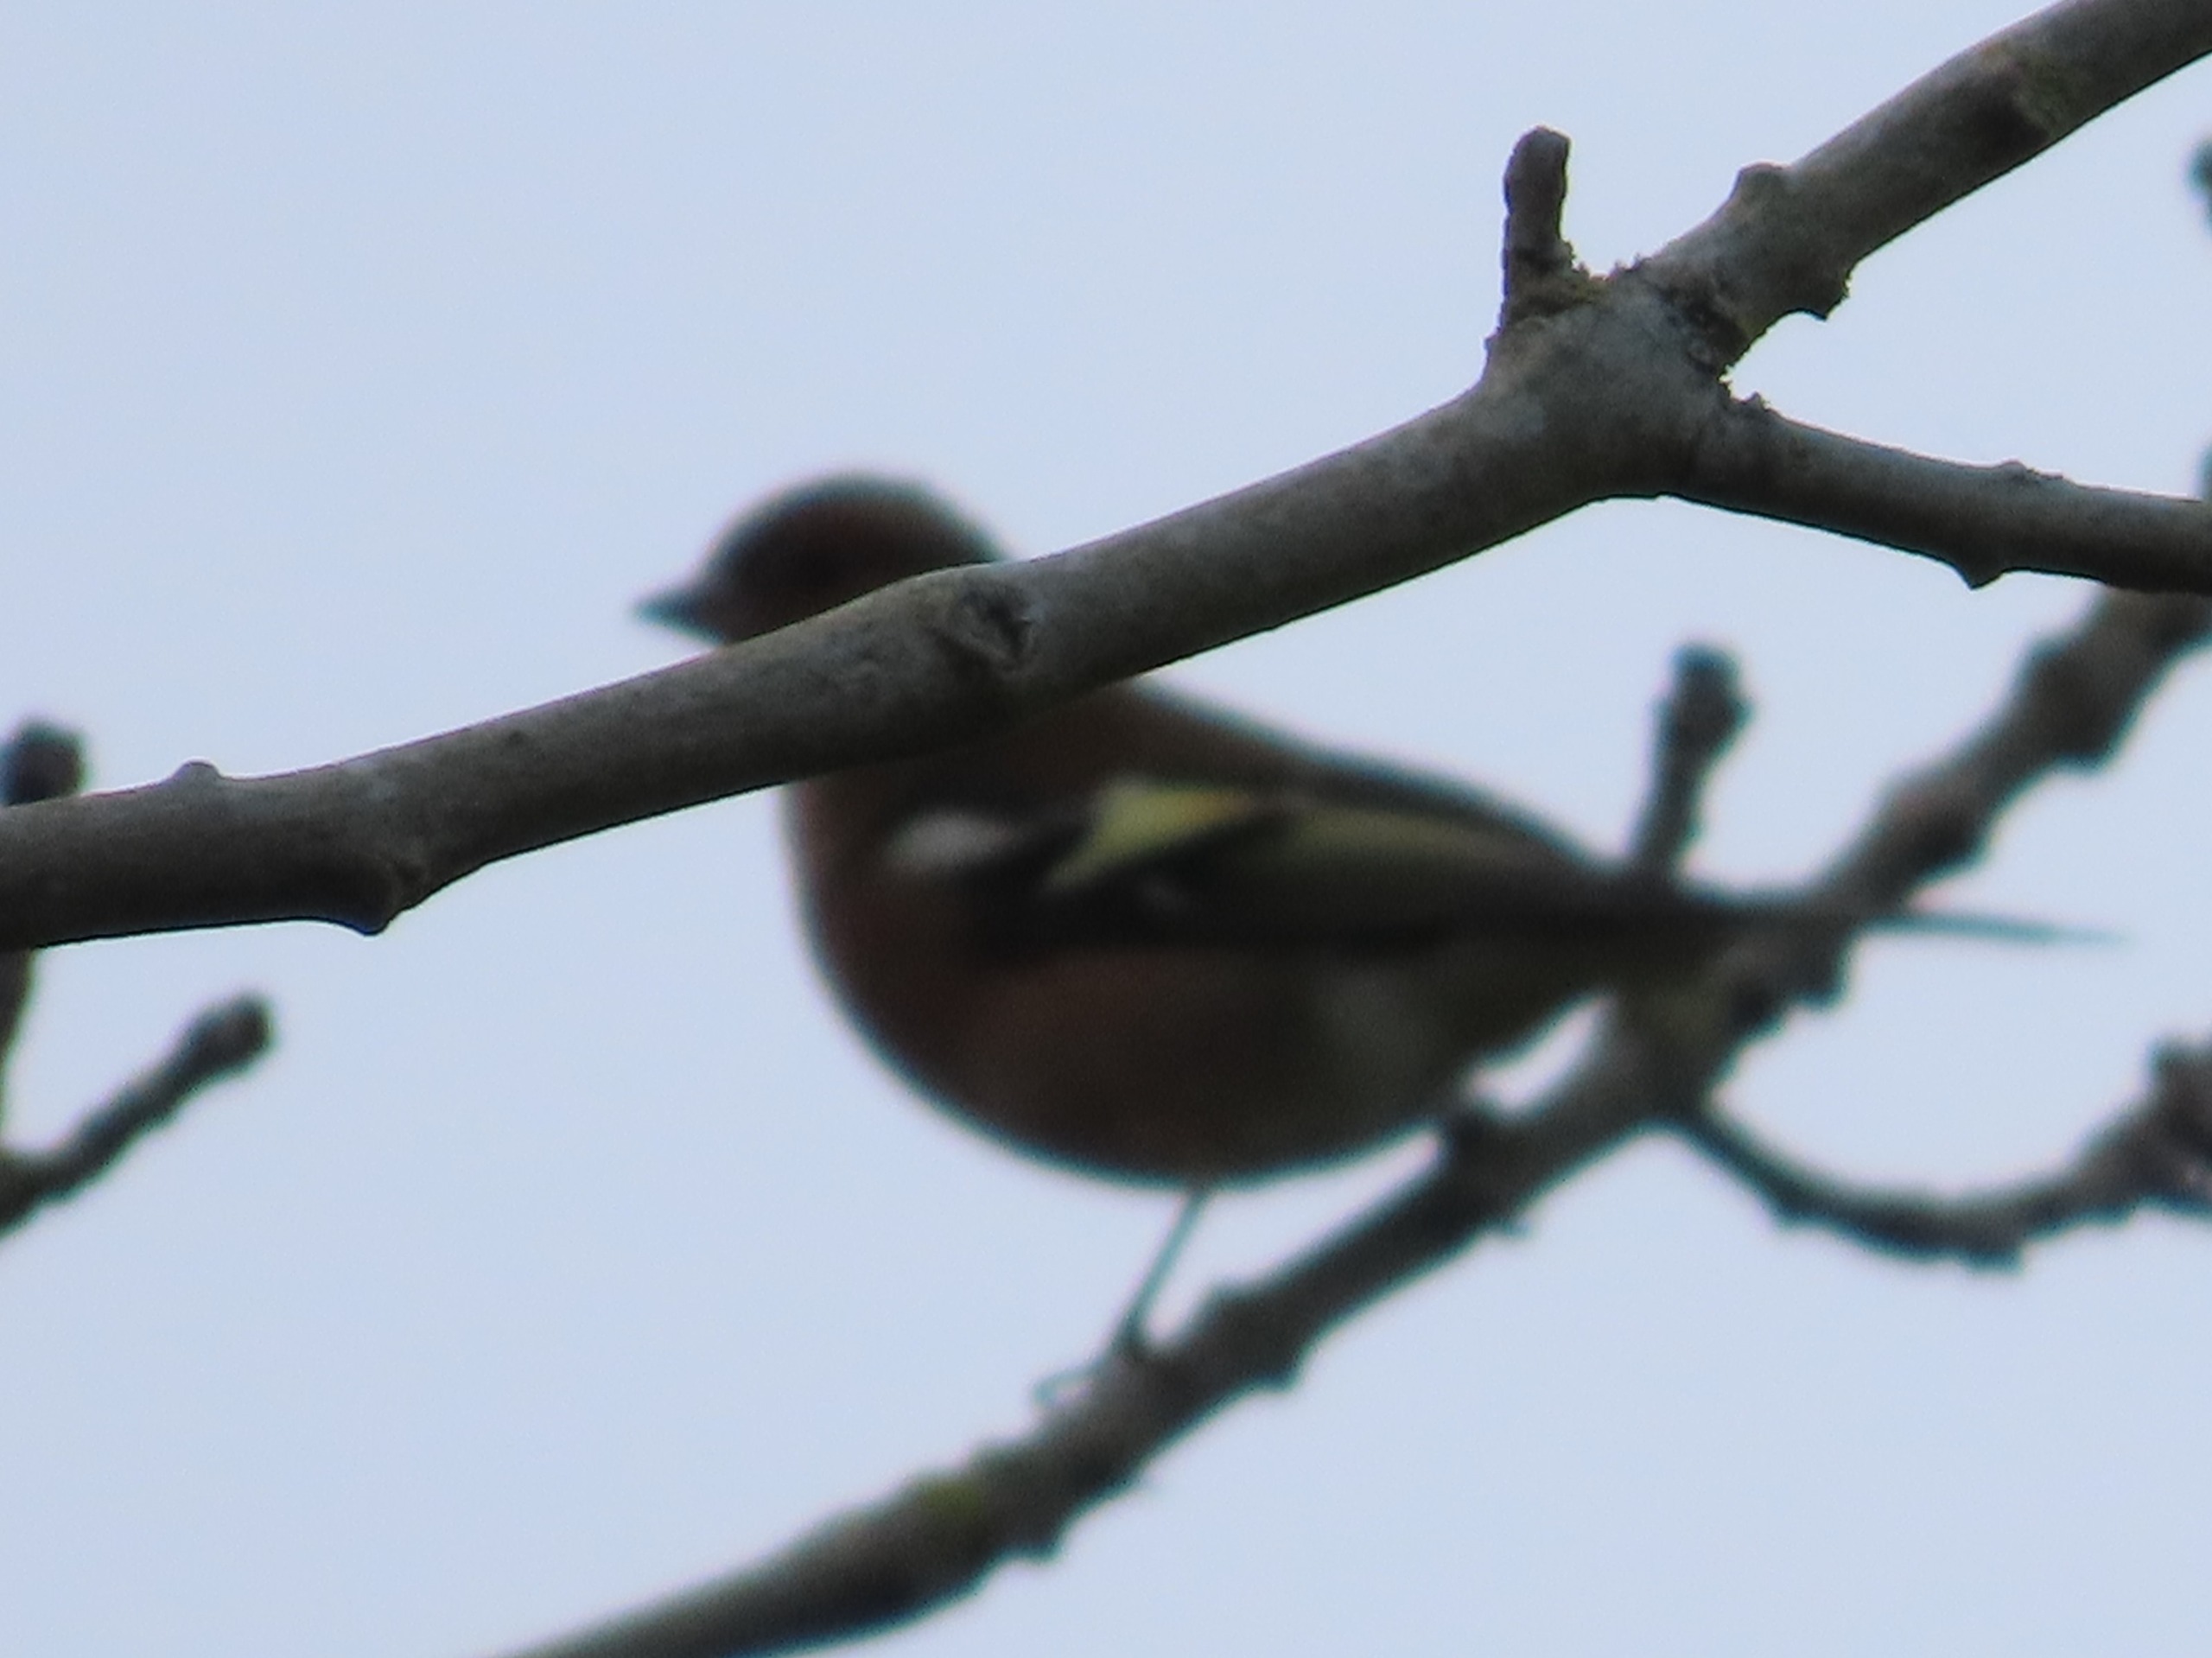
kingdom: Animalia
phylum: Chordata
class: Aves
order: Passeriformes
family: Fringillidae
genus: Fringilla
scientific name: Fringilla coelebs
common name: Bogfinke
